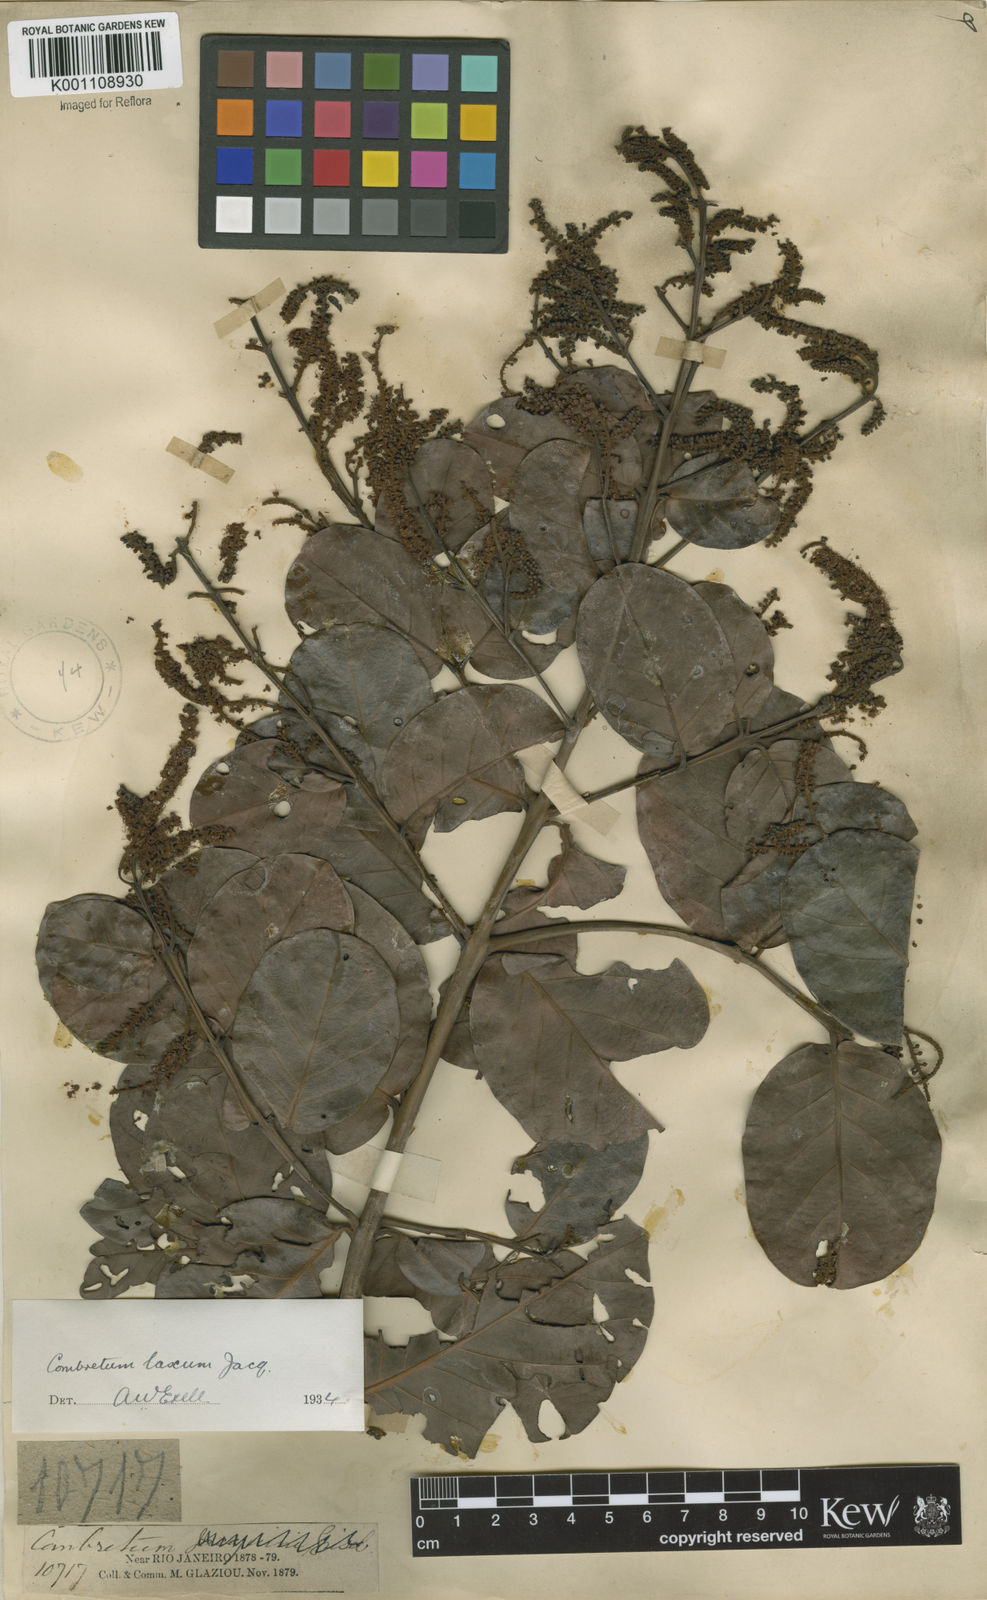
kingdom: Plantae
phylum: Tracheophyta
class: Magnoliopsida
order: Myrtales
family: Combretaceae
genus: Combretum
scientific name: Combretum laxum
